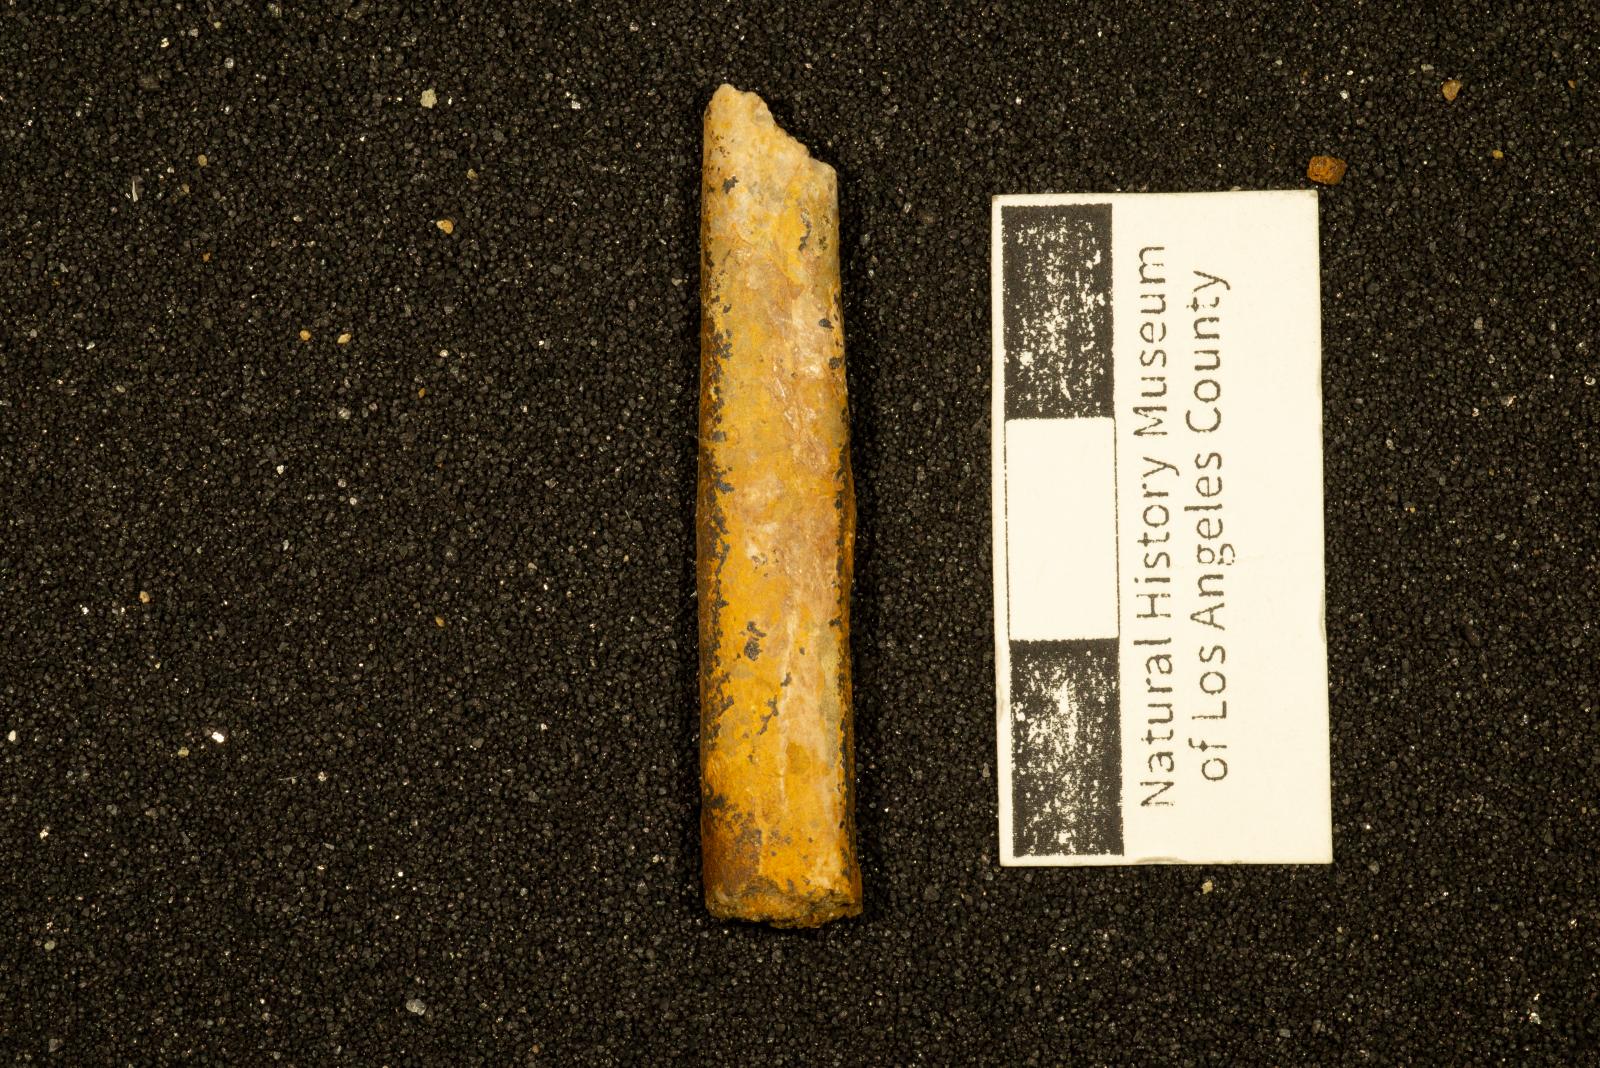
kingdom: Animalia
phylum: Mollusca
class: Cephalopoda
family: Baculitidae
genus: Sciponoceras
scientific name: Sciponoceras
